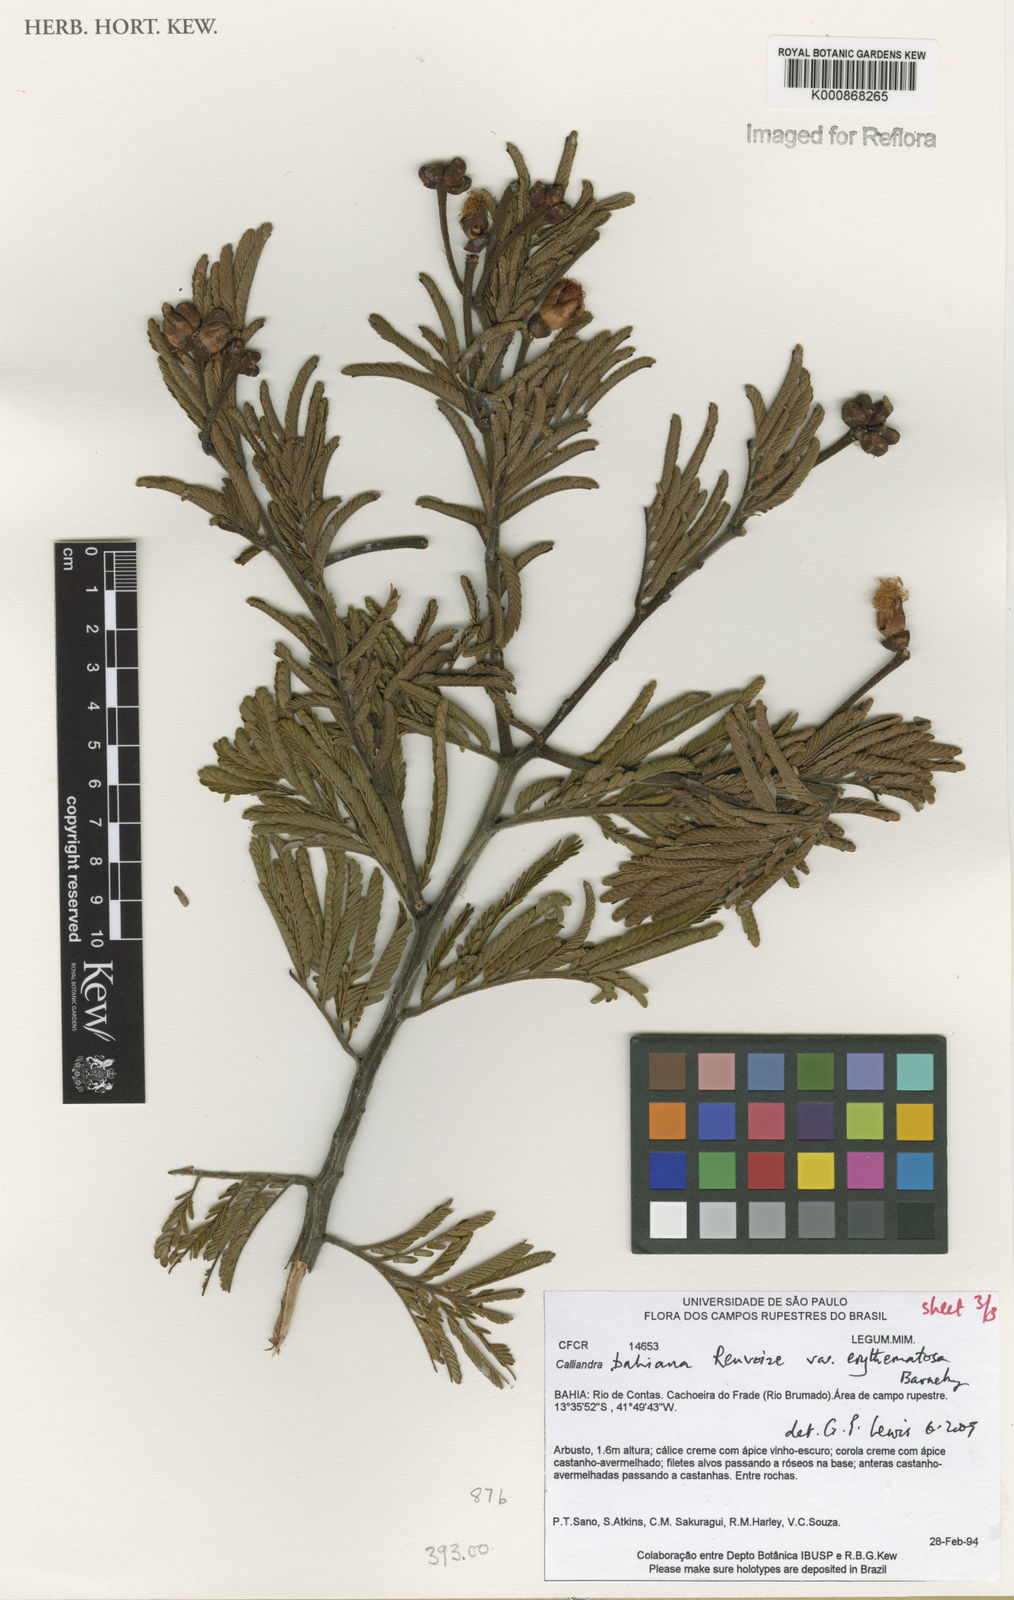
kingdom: Plantae
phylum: Tracheophyta
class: Magnoliopsida
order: Fabales
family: Fabaceae
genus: Calliandra
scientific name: Calliandra bahiana
